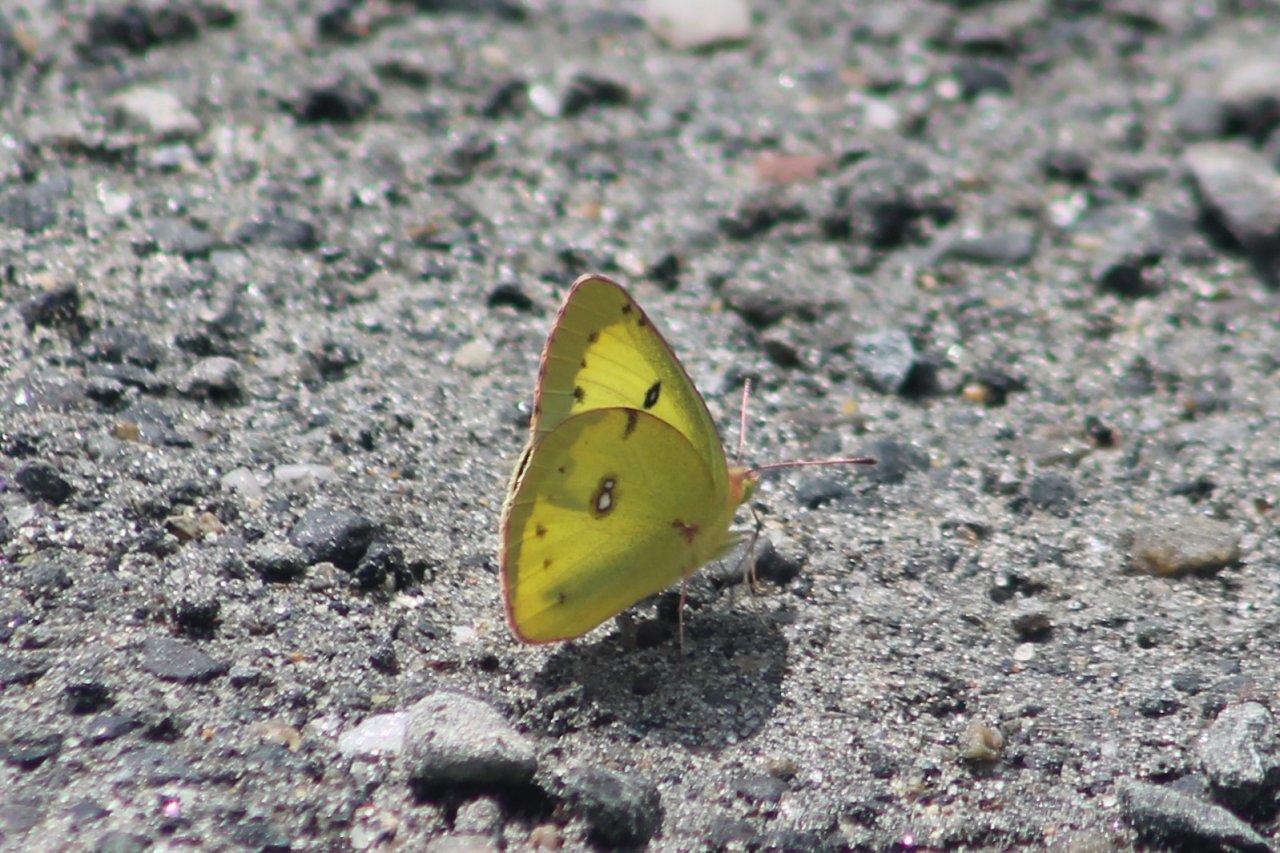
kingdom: Animalia
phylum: Arthropoda
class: Insecta
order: Lepidoptera
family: Pieridae
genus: Colias
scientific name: Colias philodice
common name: Clouded Sulphur
